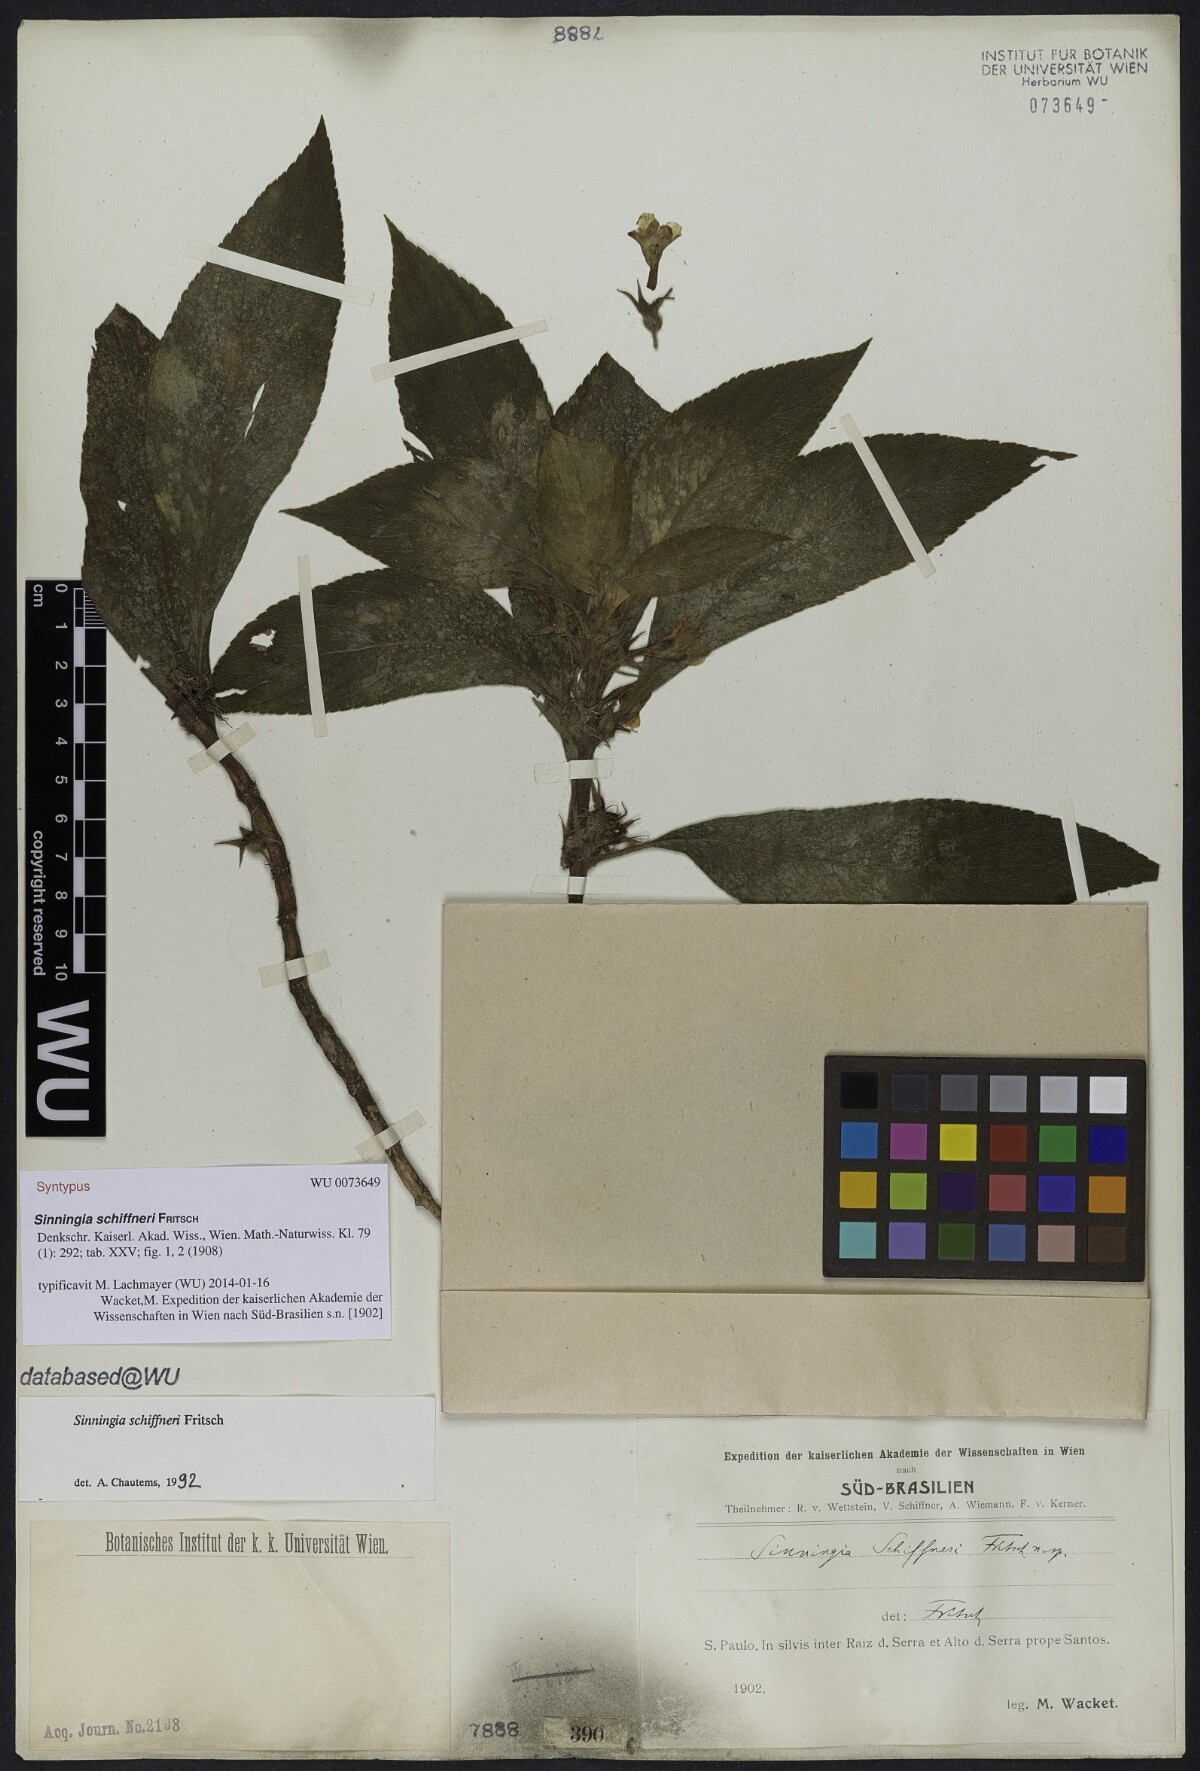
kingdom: Plantae
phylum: Tracheophyta
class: Magnoliopsida
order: Lamiales
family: Gesneriaceae
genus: Sinningia
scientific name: Sinningia schiffneri
